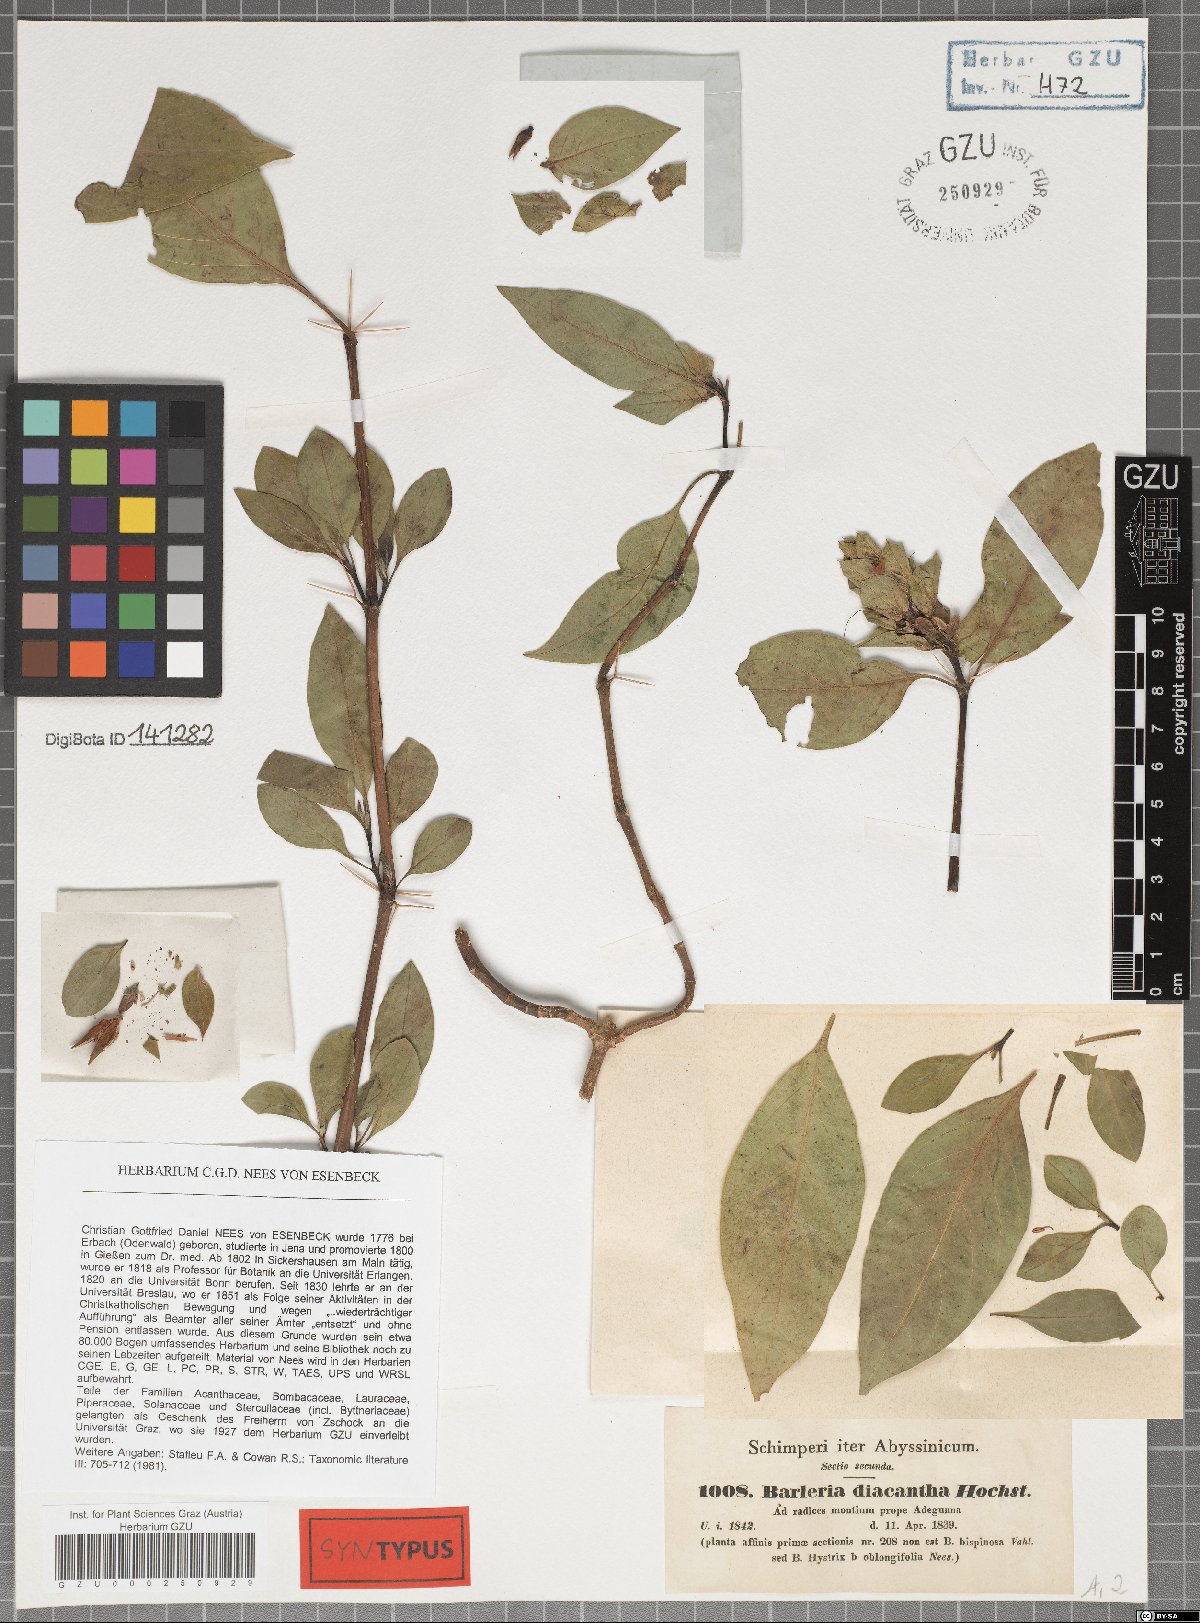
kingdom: Plantae
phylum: Tracheophyta
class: Magnoliopsida
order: Lamiales
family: Acanthaceae
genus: Barleria
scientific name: Barleria trispinosa
